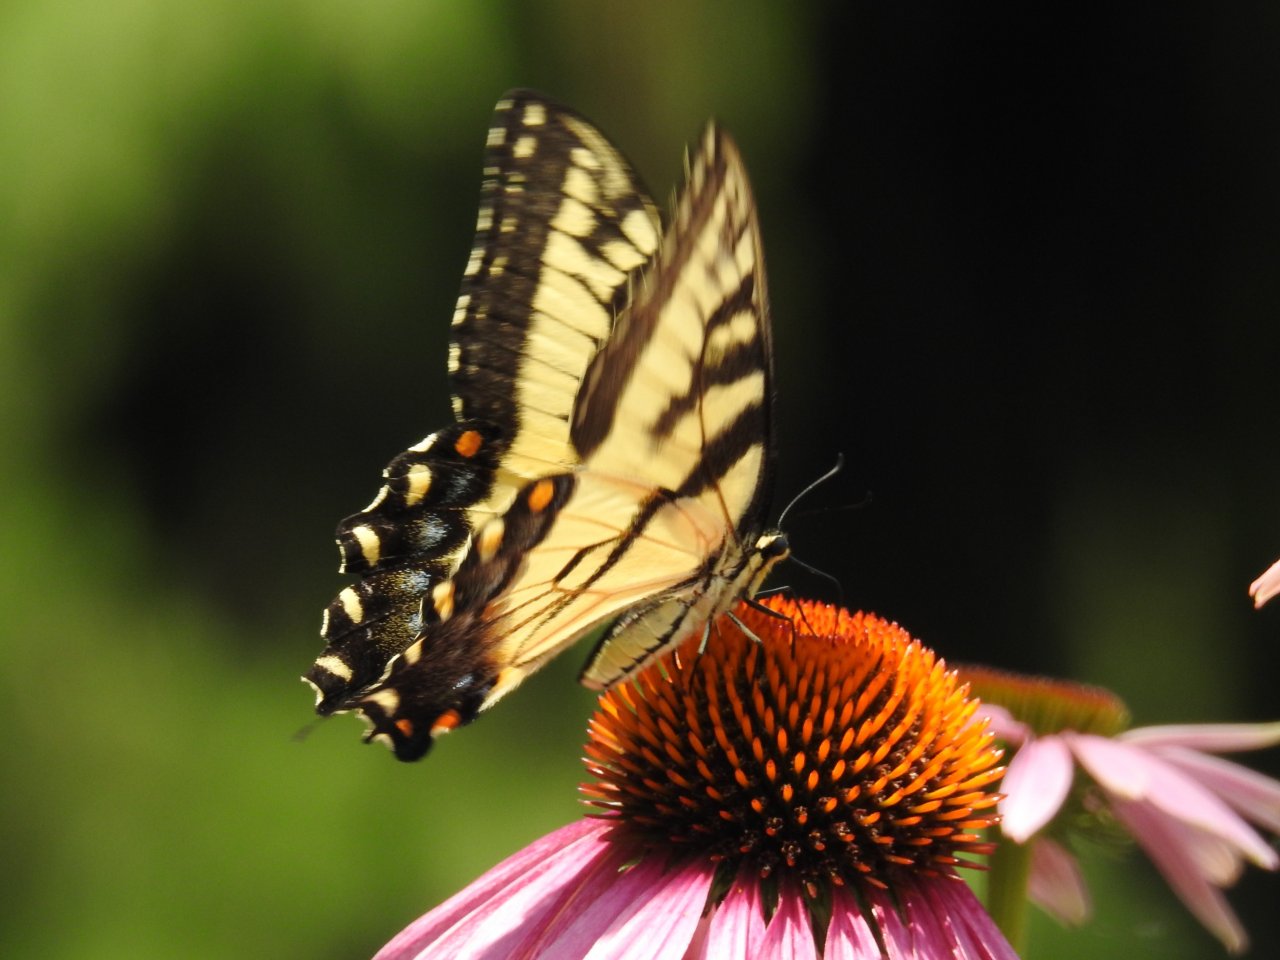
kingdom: Animalia
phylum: Arthropoda
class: Insecta
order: Lepidoptera
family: Papilionidae
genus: Pterourus
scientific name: Pterourus glaucus
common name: Eastern Tiger Swallowtail
